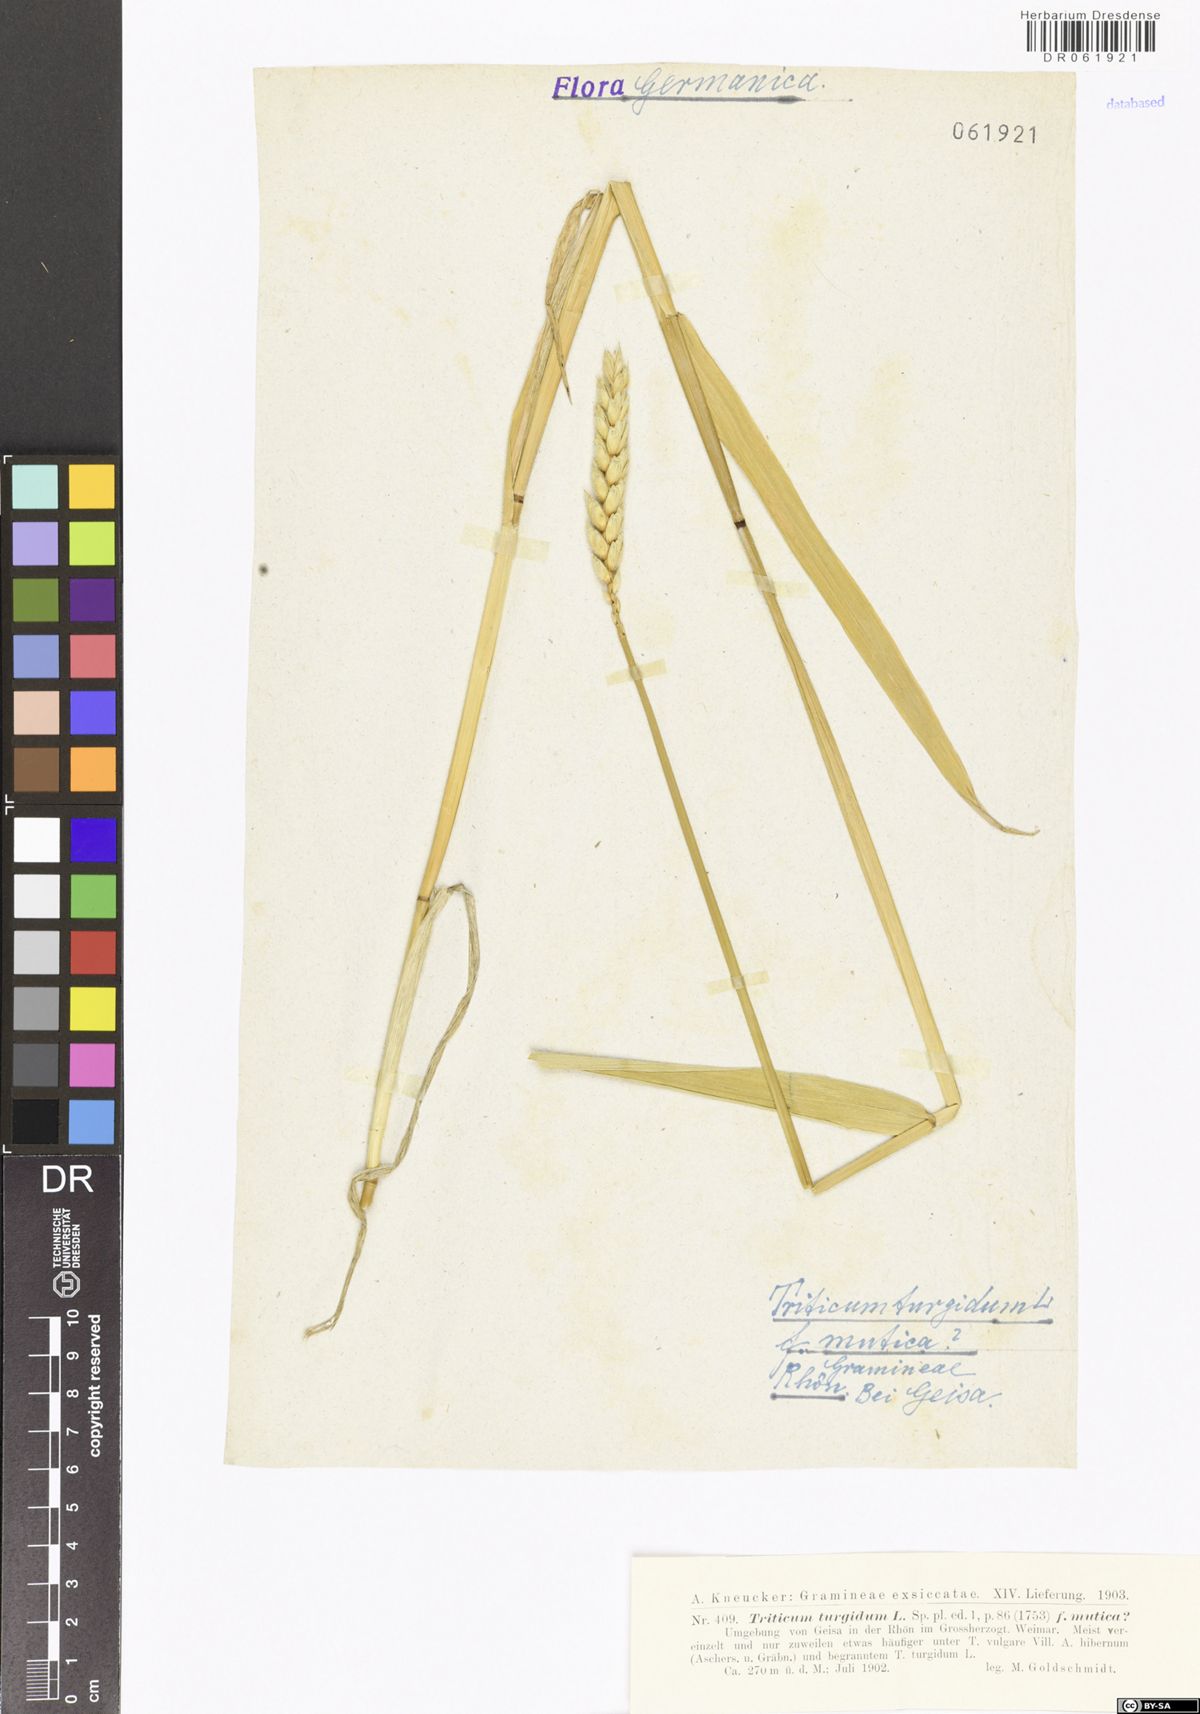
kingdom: Plantae
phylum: Tracheophyta
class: Liliopsida
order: Poales
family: Poaceae
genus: Triticum
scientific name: Triticum turgidum
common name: Rivet wheat
